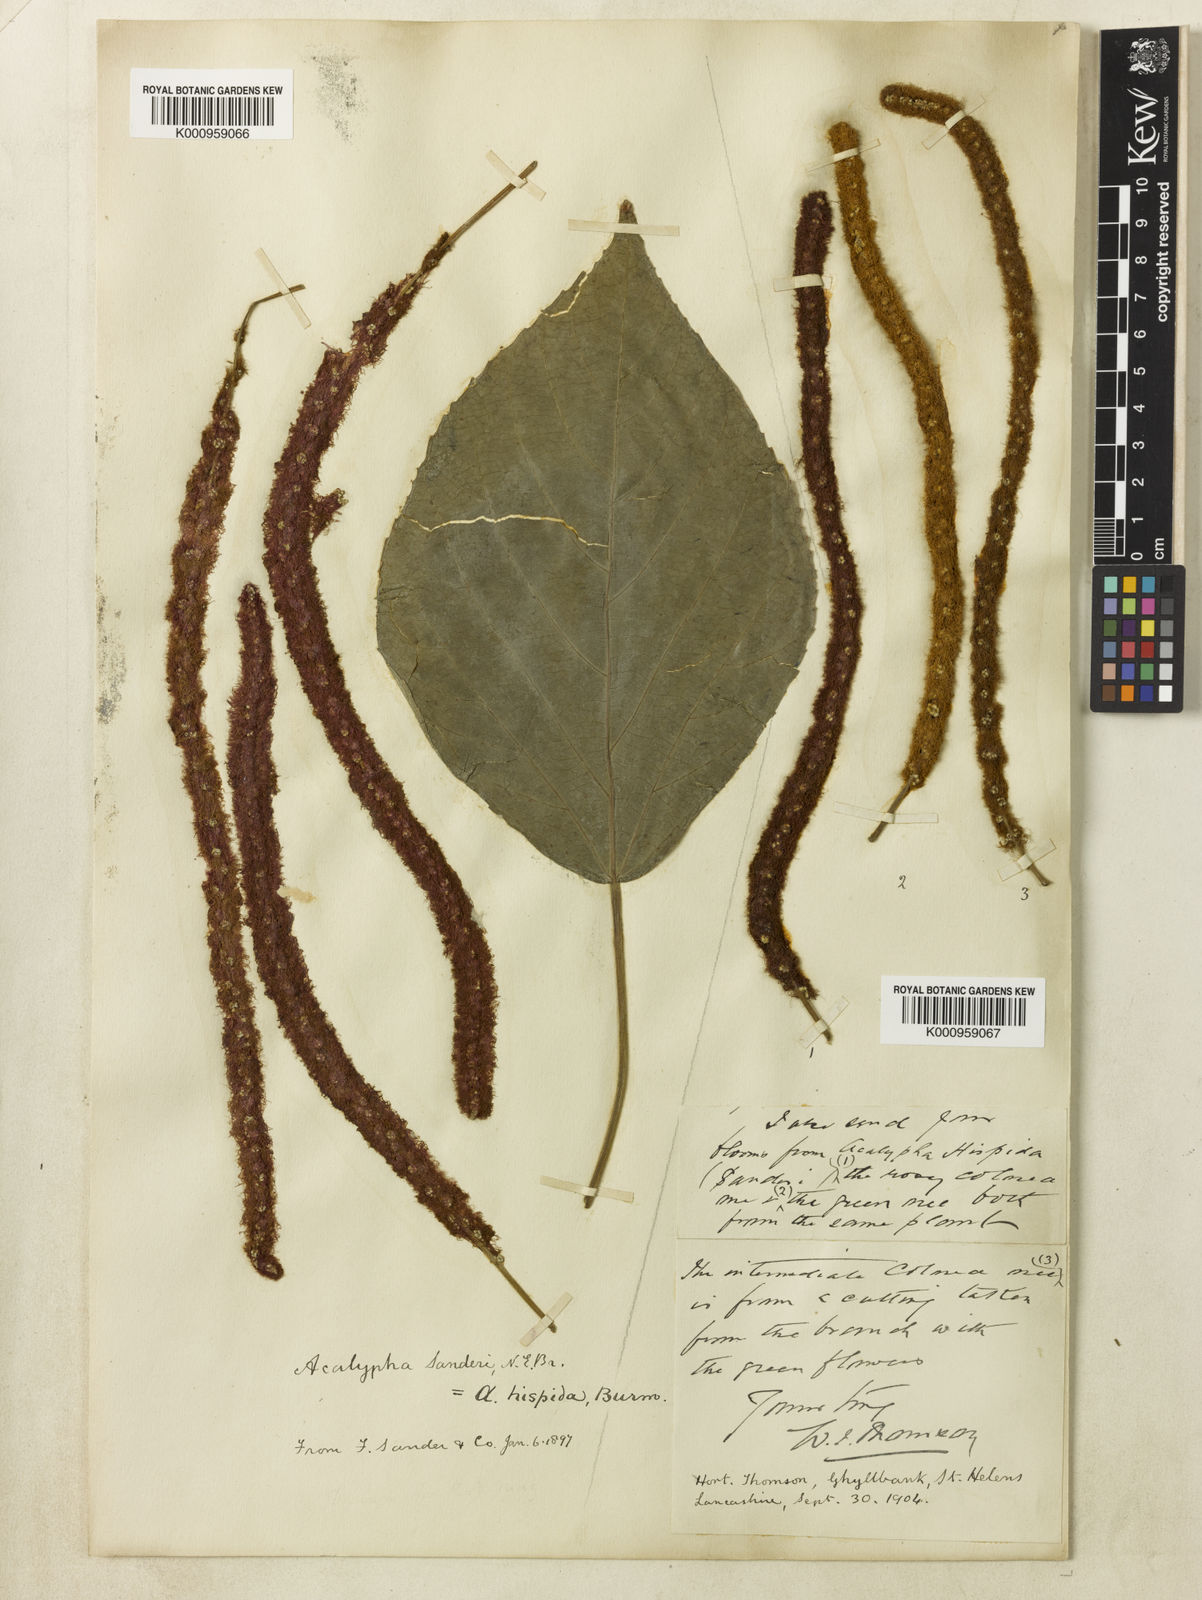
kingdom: Plantae
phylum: Tracheophyta
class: Magnoliopsida
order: Malpighiales
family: Euphorbiaceae
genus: Acalypha
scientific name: Acalypha hispida
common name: Chenilleplant
